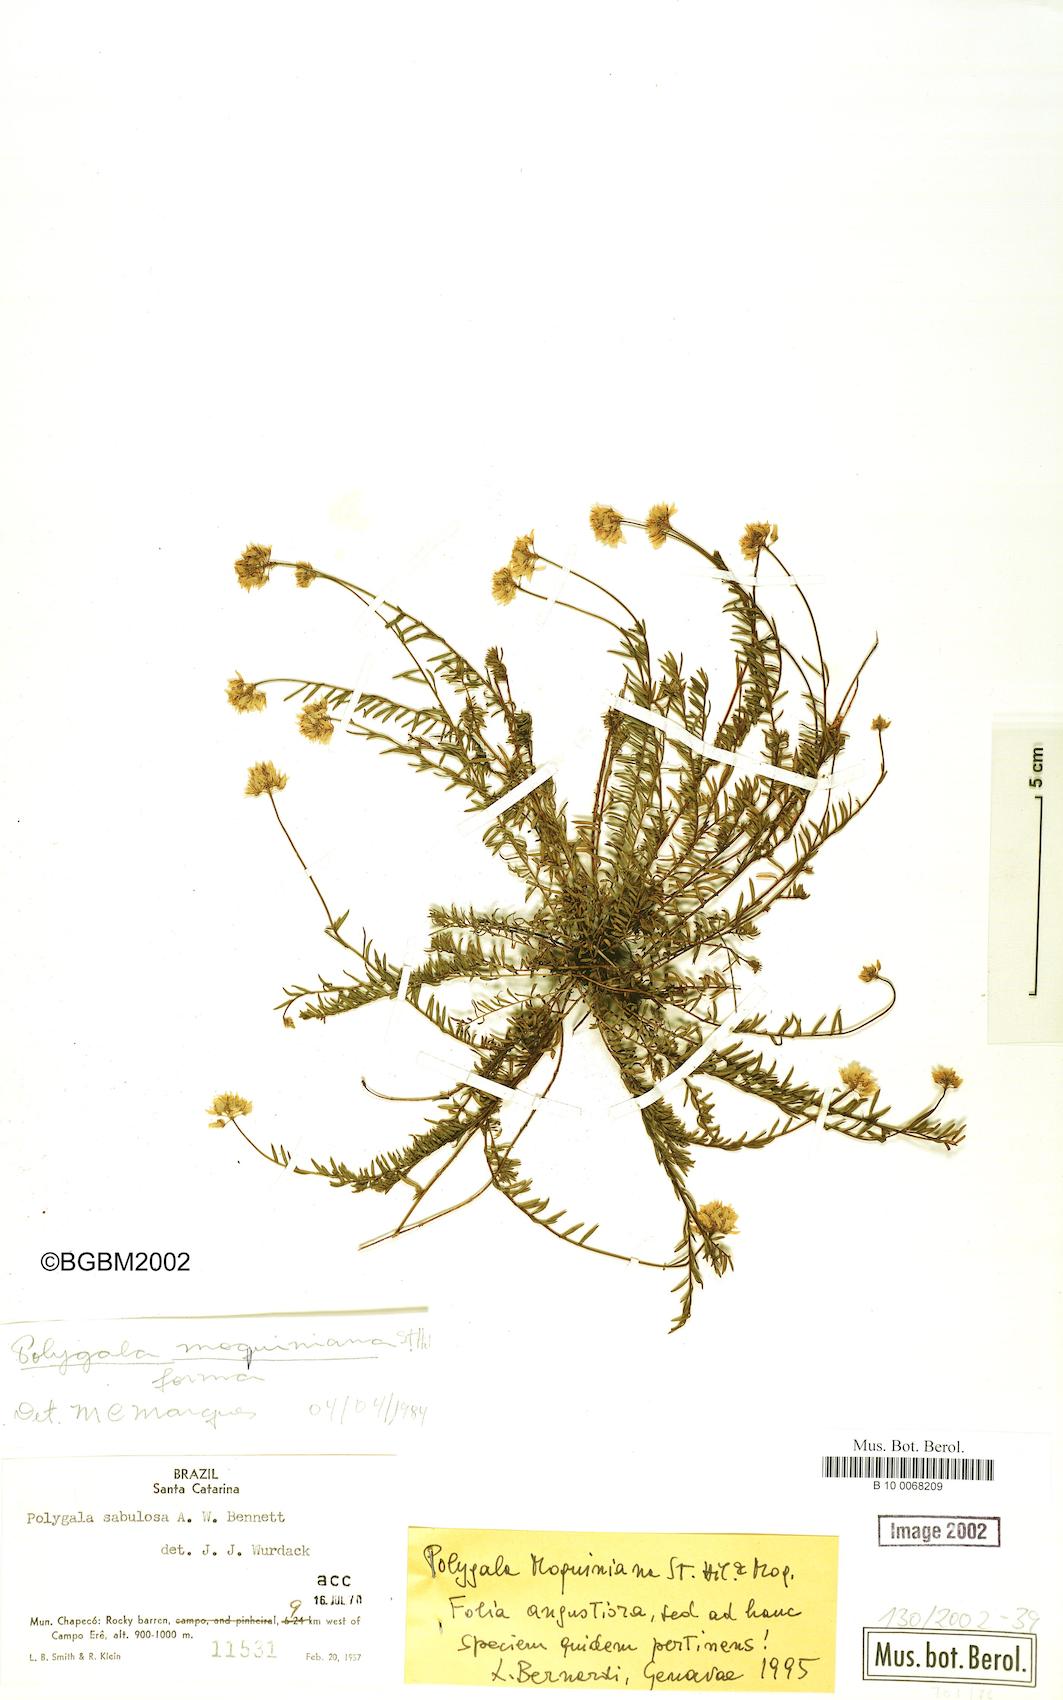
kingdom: Plantae
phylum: Tracheophyta
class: Magnoliopsida
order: Fabales
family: Polygalaceae
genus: Polygala
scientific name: Polygala moquiniana
